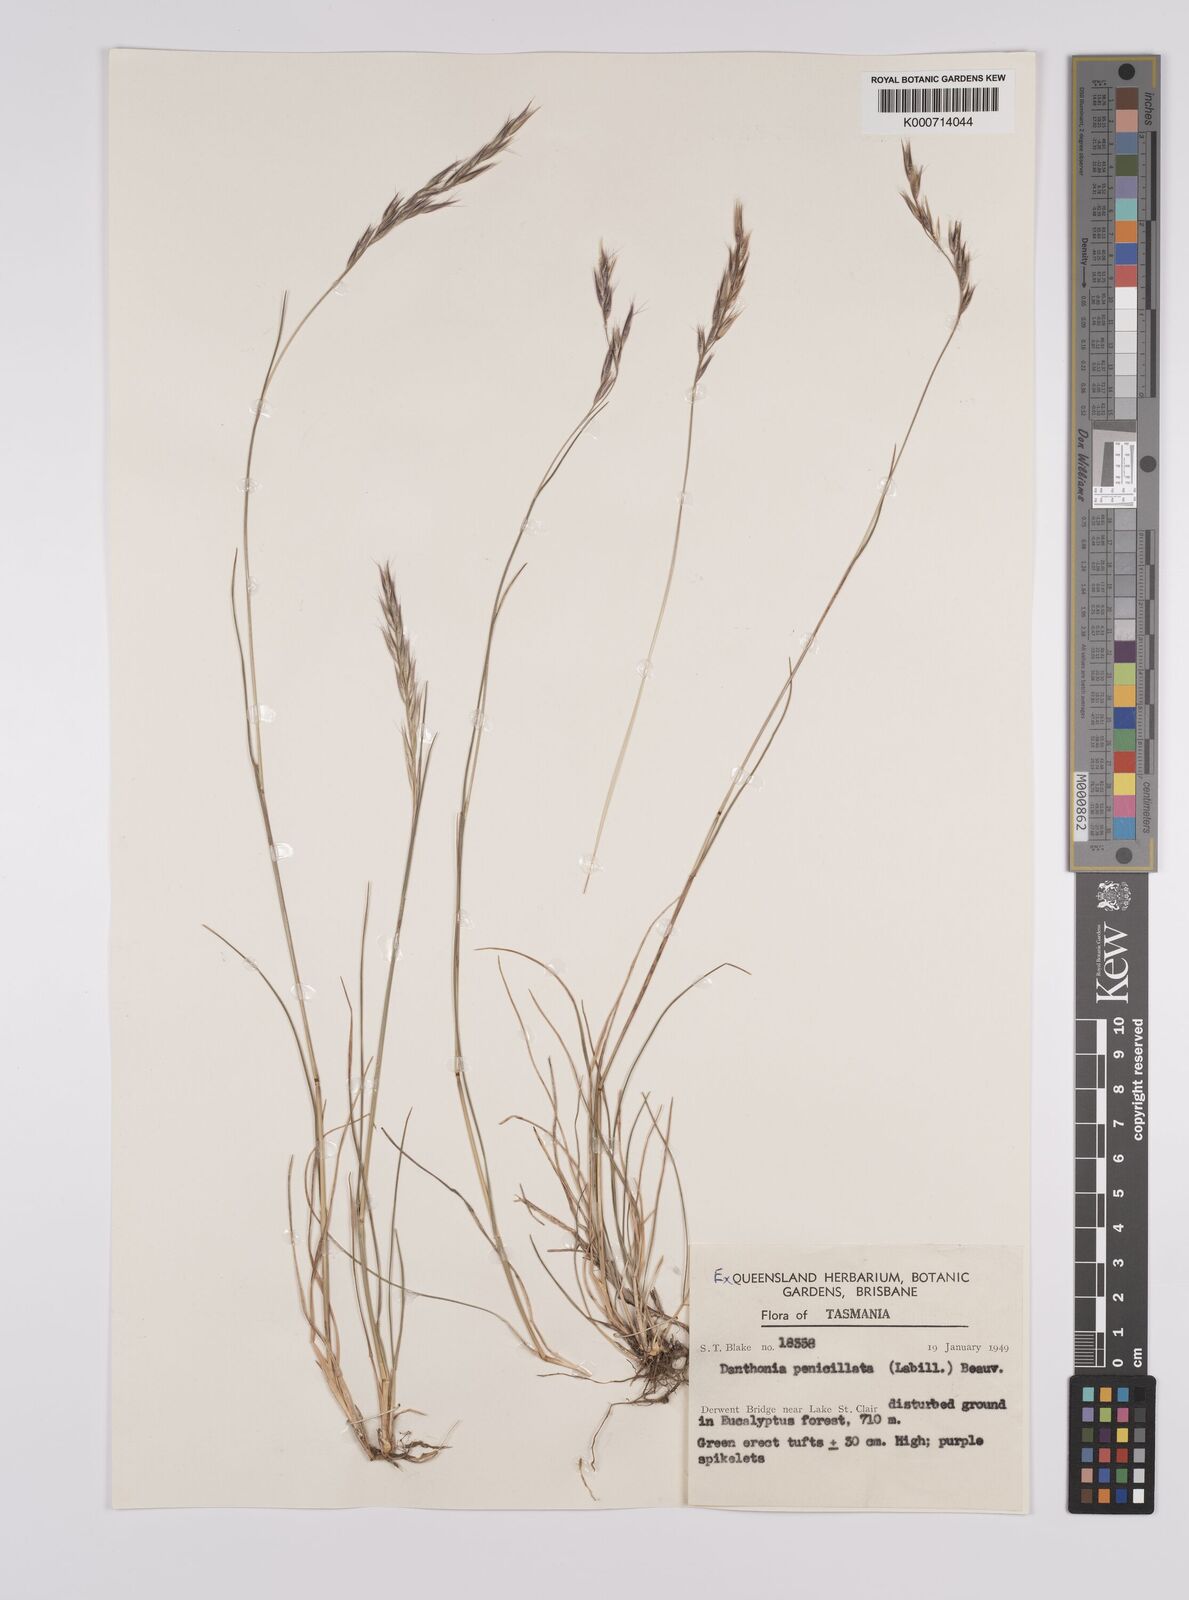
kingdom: Plantae
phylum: Tracheophyta
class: Liliopsida
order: Poales
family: Poaceae
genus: Rytidosperma
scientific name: Rytidosperma penicillatum
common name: Hairy wallaby grass
